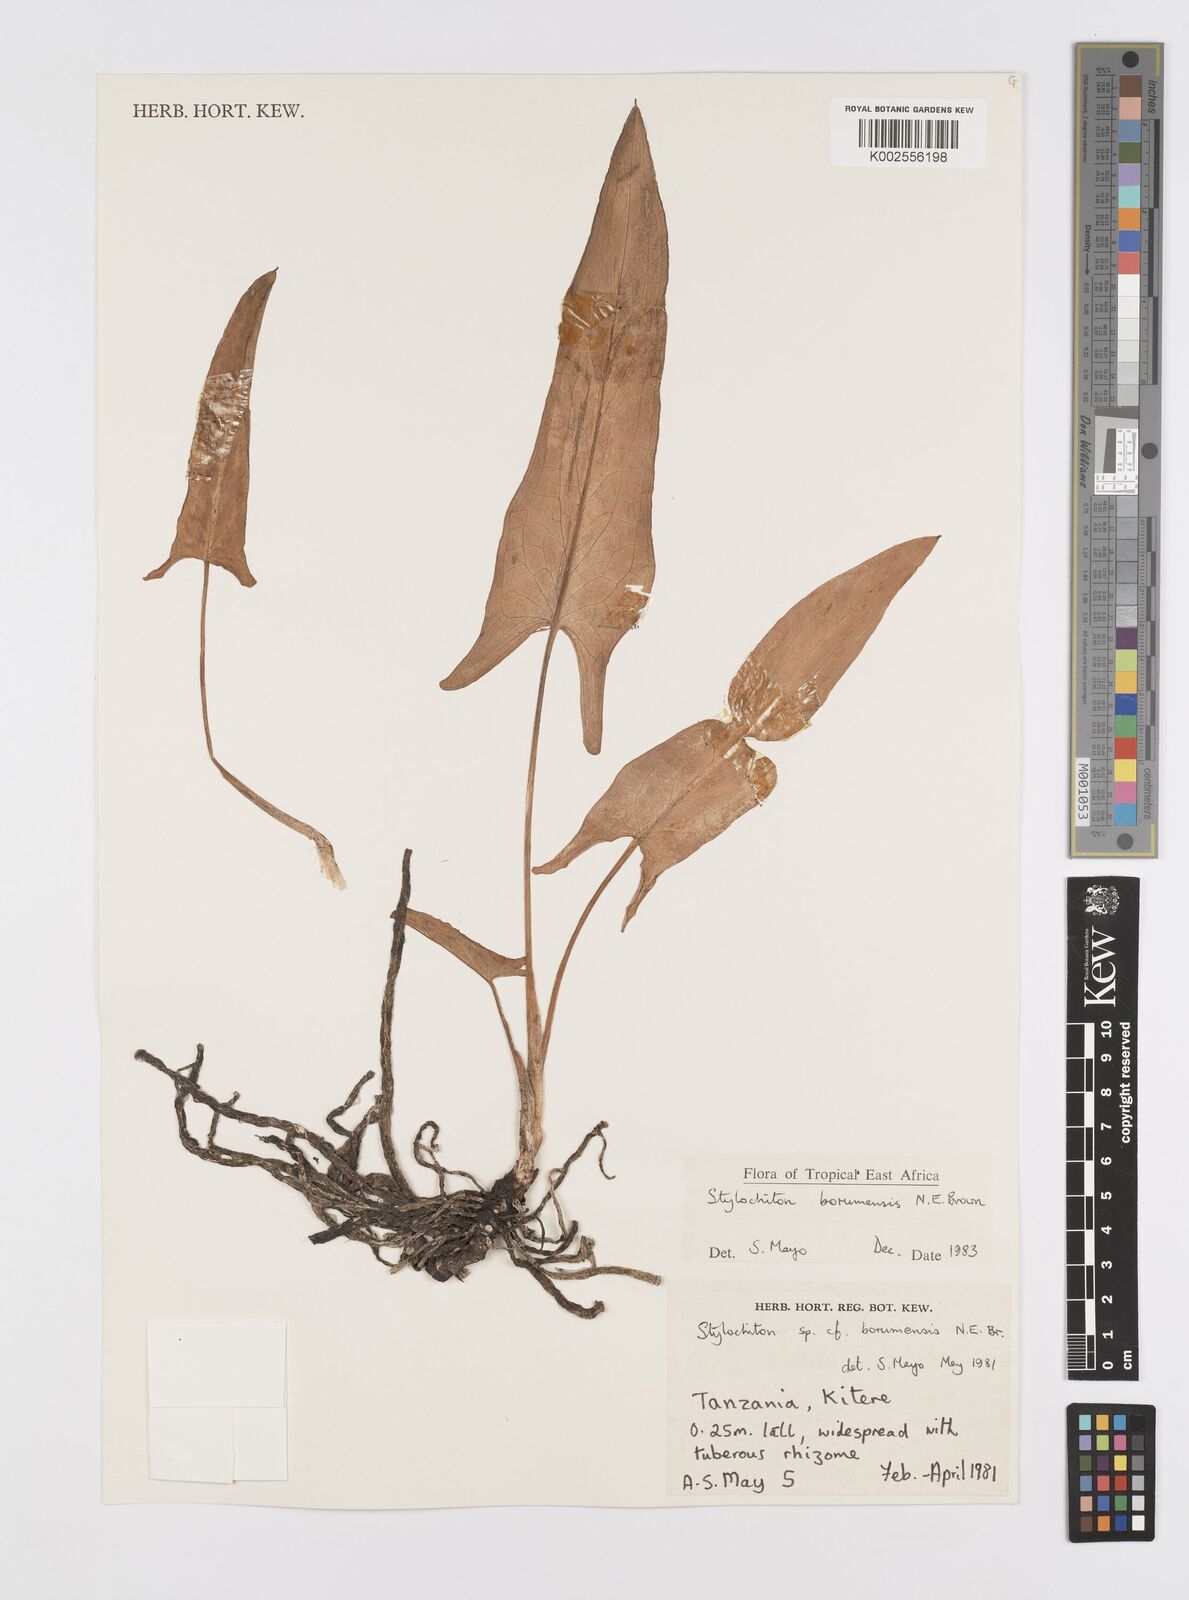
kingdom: Plantae
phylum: Tracheophyta
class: Liliopsida
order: Alismatales
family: Araceae
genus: Stylochaeton
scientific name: Stylochaeton borumense
